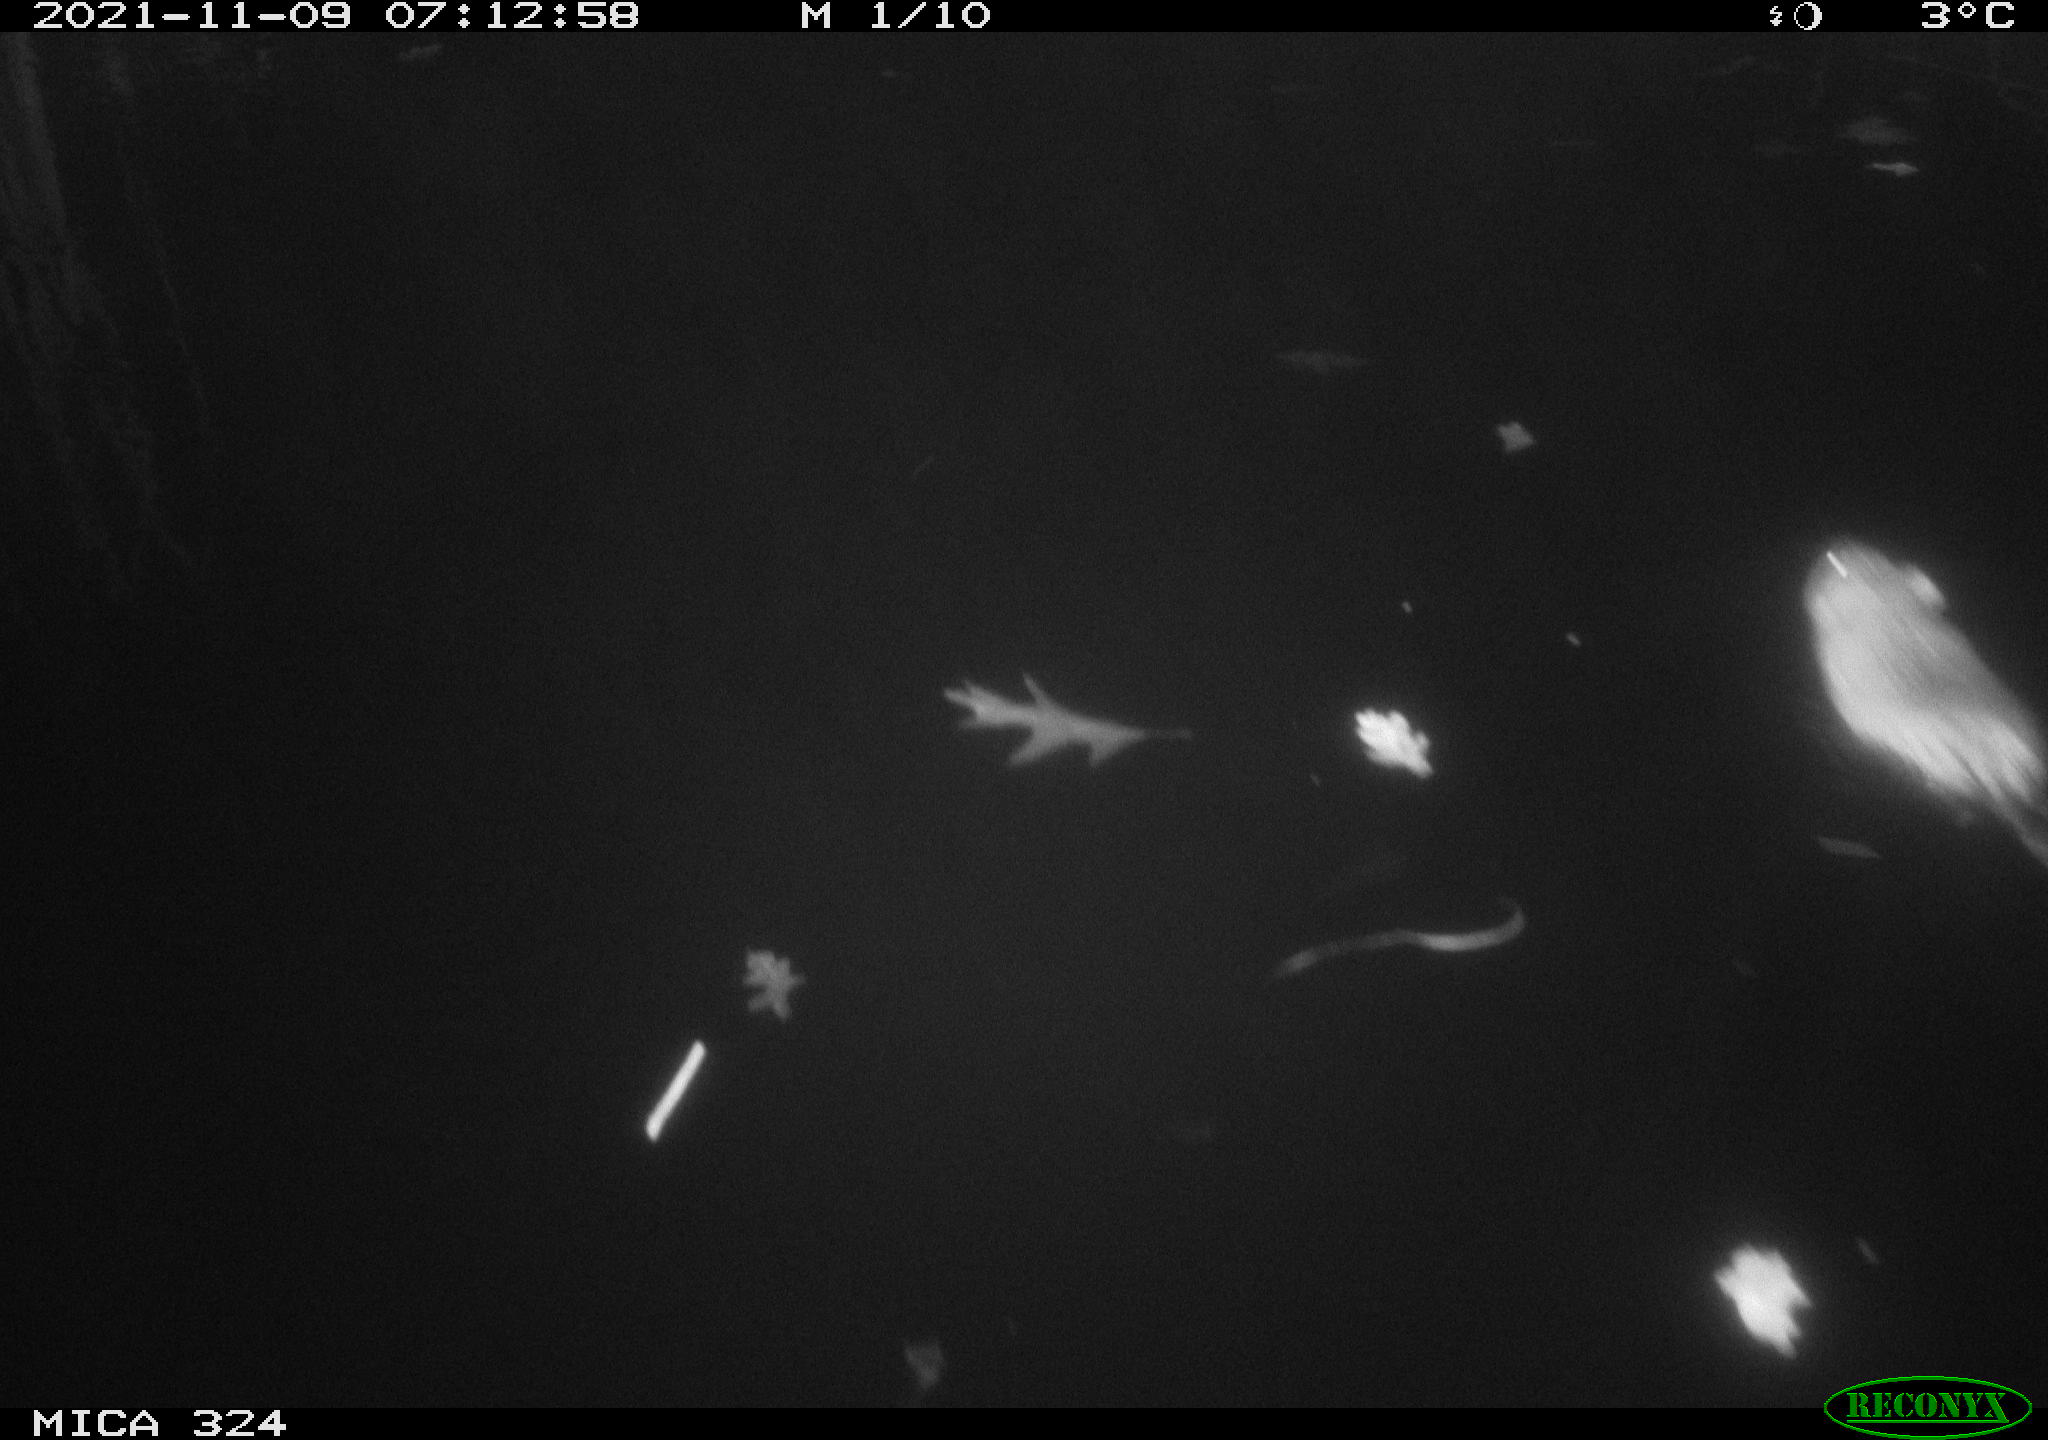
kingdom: Animalia
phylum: Chordata
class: Mammalia
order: Rodentia
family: Cricetidae
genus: Ondatra
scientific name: Ondatra zibethicus
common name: Muskrat
